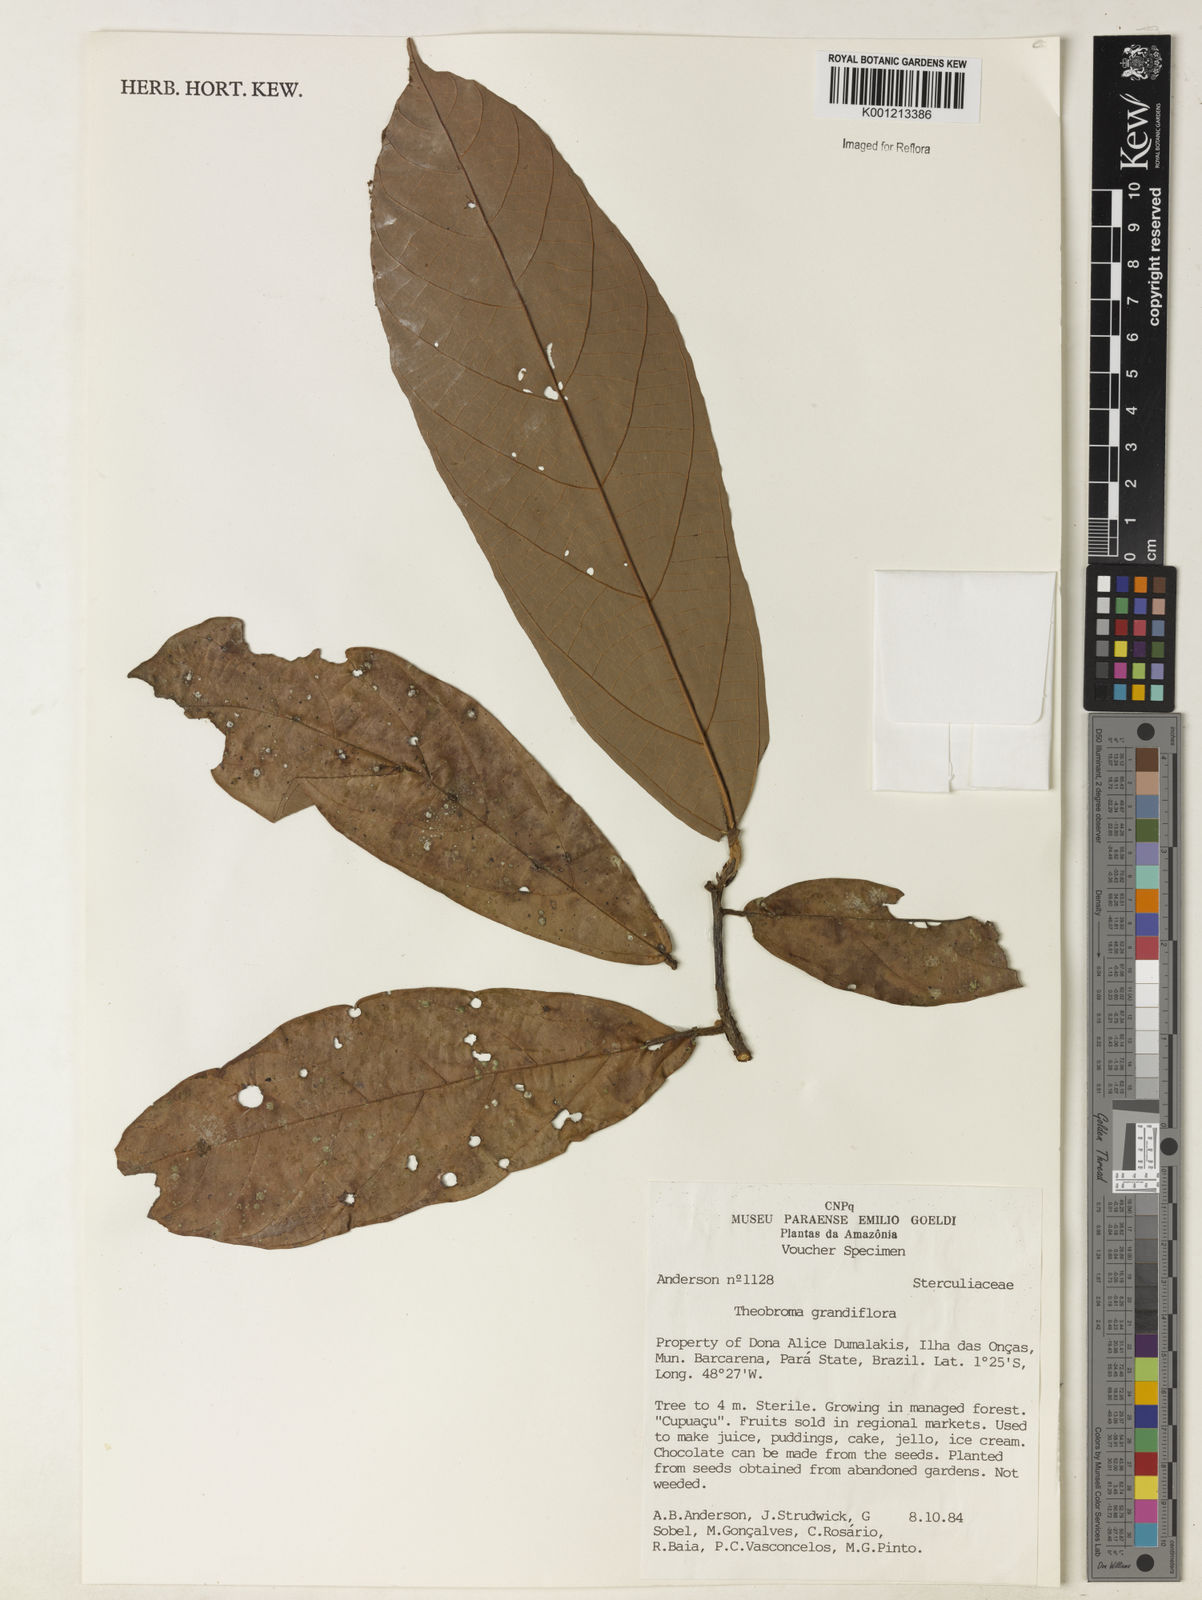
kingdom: Plantae
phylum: Tracheophyta
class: Magnoliopsida
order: Malvales
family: Malvaceae
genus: Theobroma
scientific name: Theobroma grandiflorum
